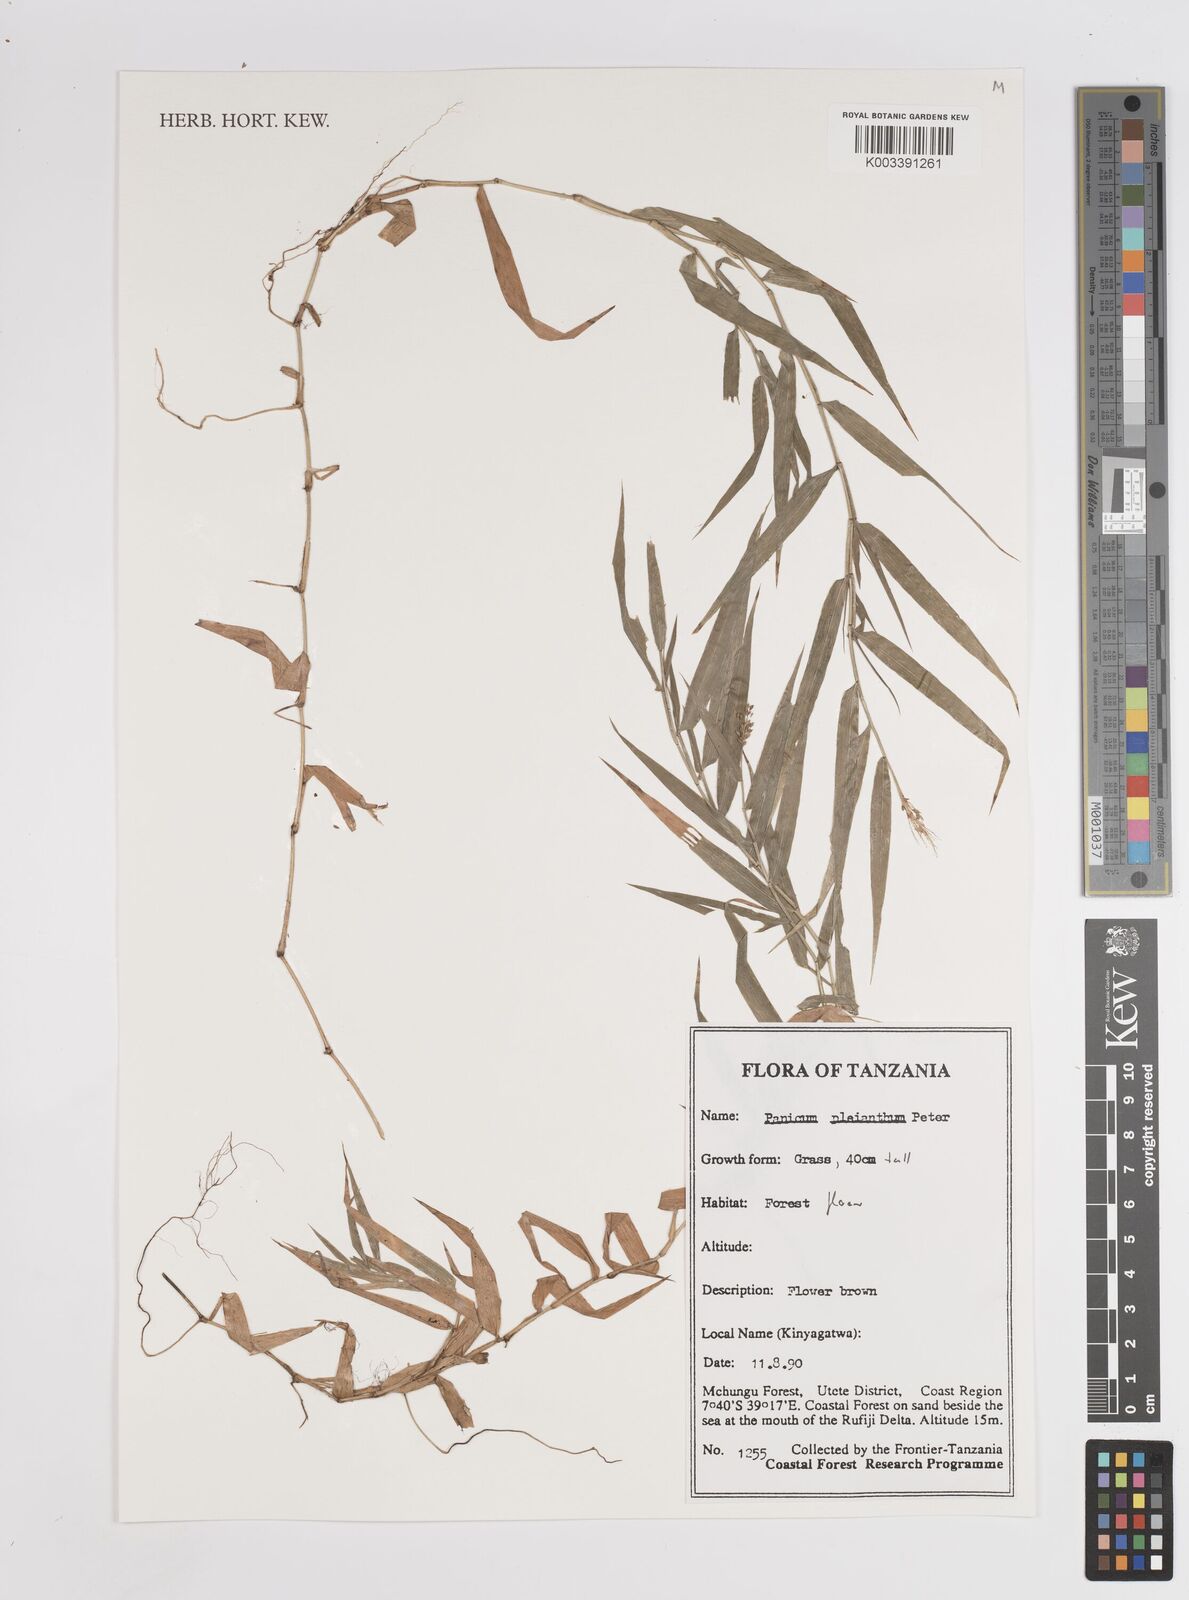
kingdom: Plantae
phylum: Tracheophyta
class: Liliopsida
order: Poales
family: Poaceae
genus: Panicum
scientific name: Panicum pleianthum
